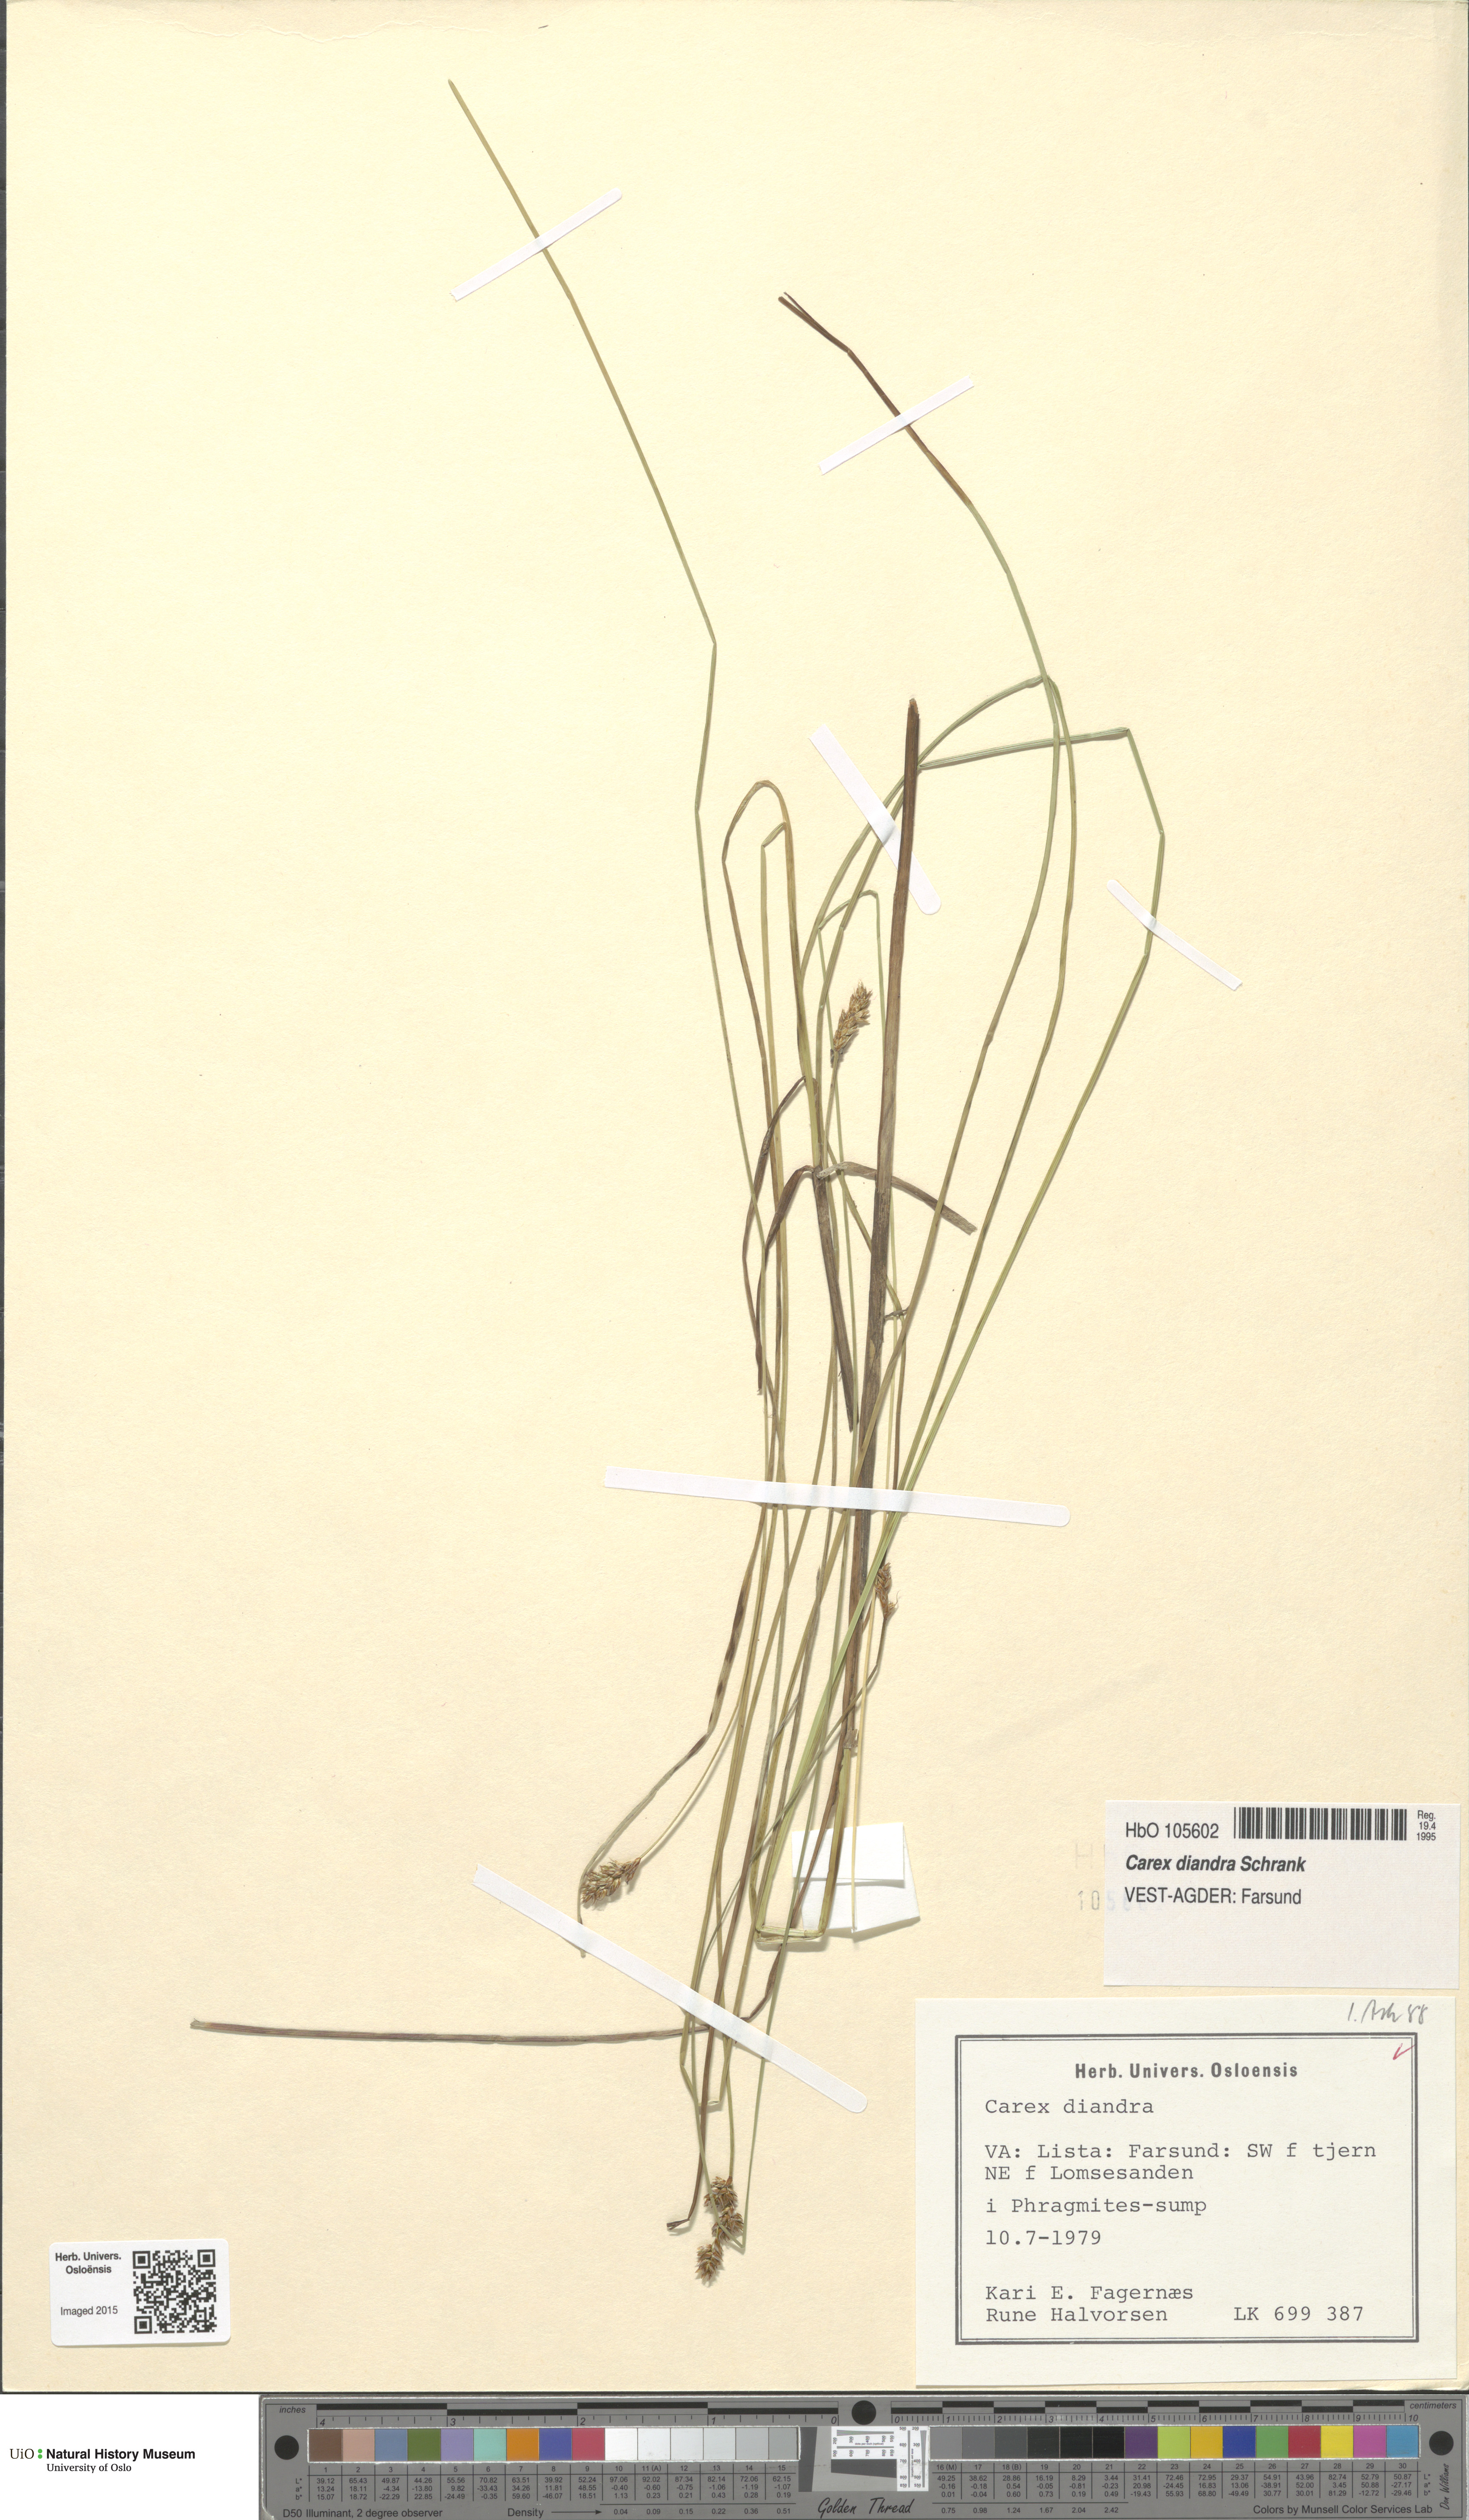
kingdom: Plantae
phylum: Tracheophyta
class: Liliopsida
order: Poales
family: Cyperaceae
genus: Carex
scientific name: Carex diandra
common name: Lesser tussock-sedge
